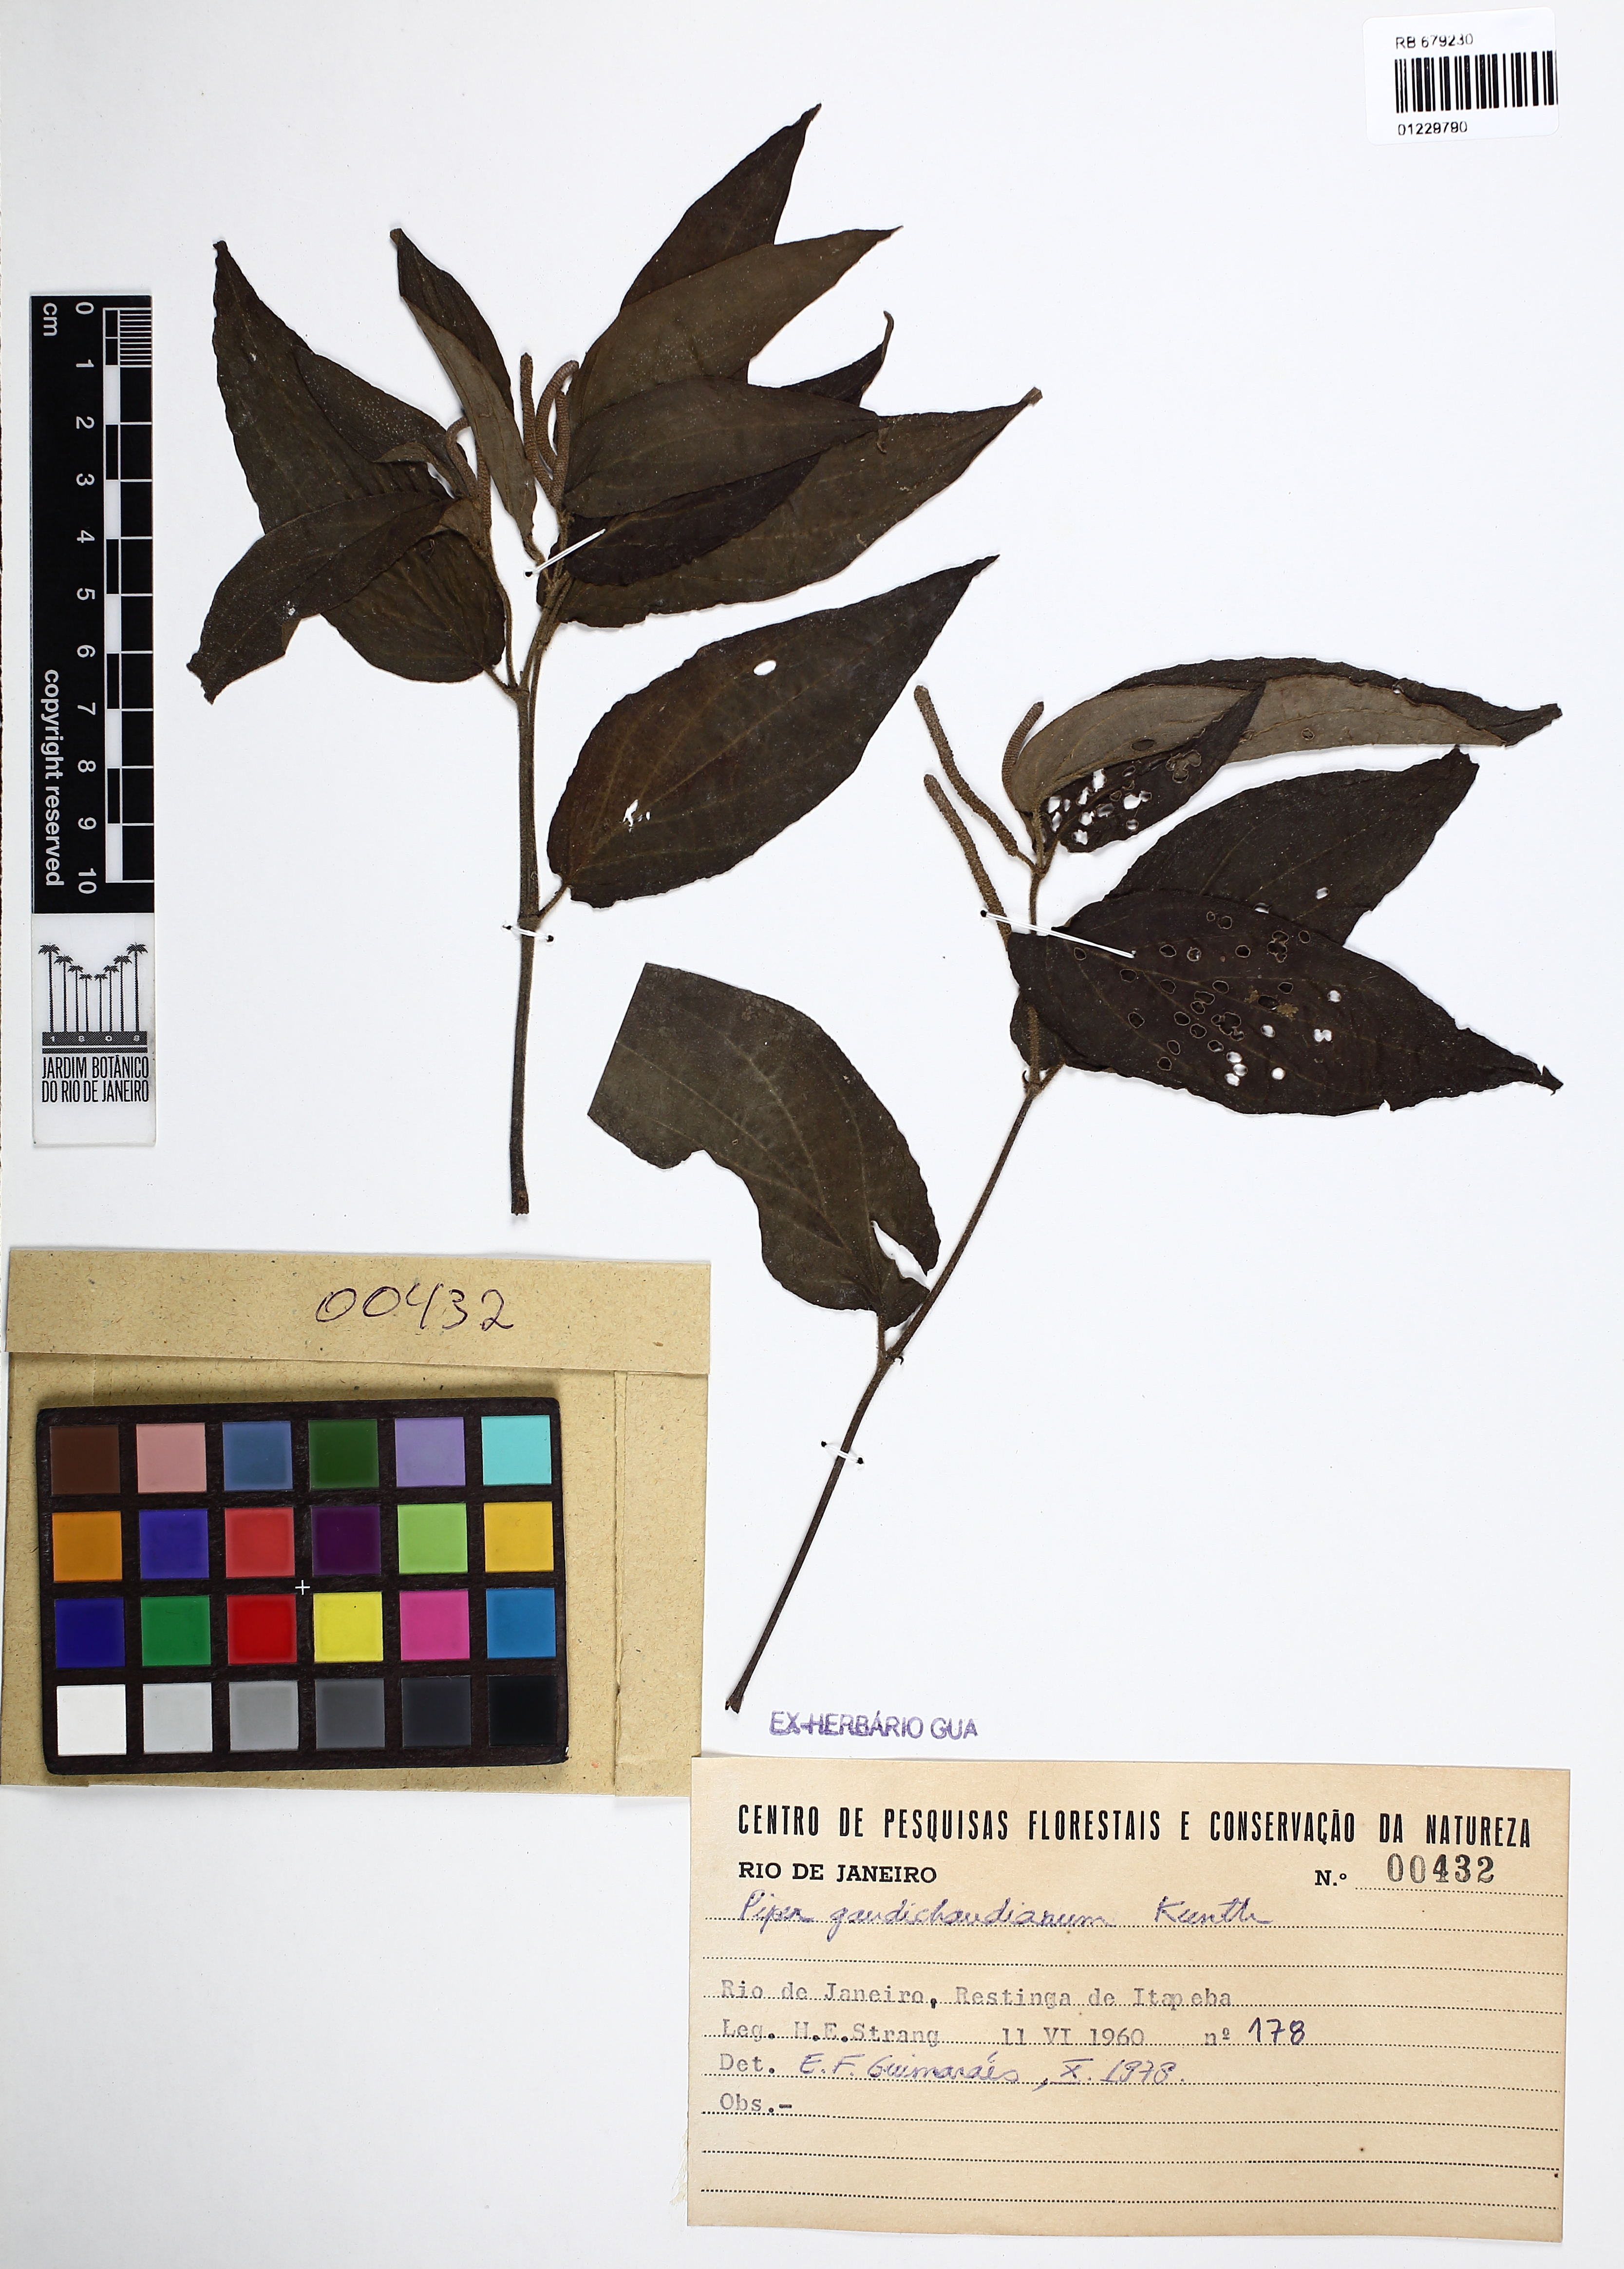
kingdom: Plantae
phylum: Tracheophyta
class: Magnoliopsida
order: Piperales
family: Piperaceae
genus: Piper
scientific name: Piper gaudichaudianum
